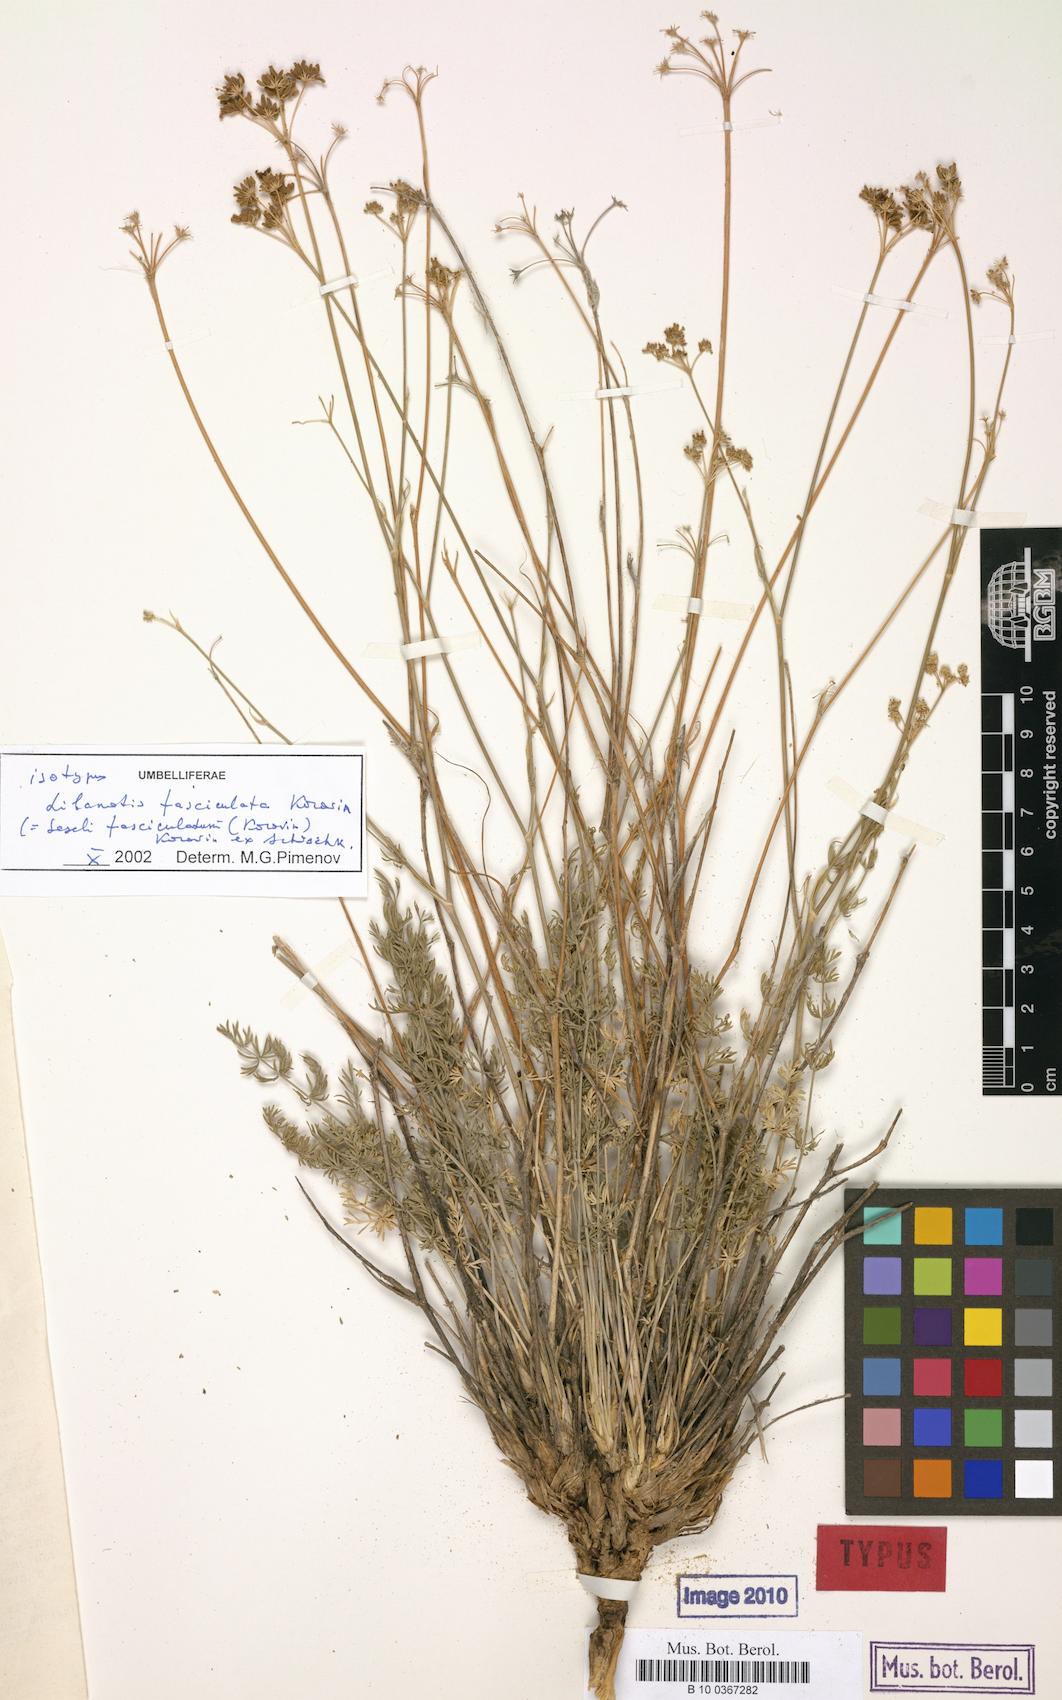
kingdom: Plantae
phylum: Tracheophyta
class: Magnoliopsida
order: Apiales
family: Apiaceae
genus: Seseli
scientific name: Seseli fasciculatum
